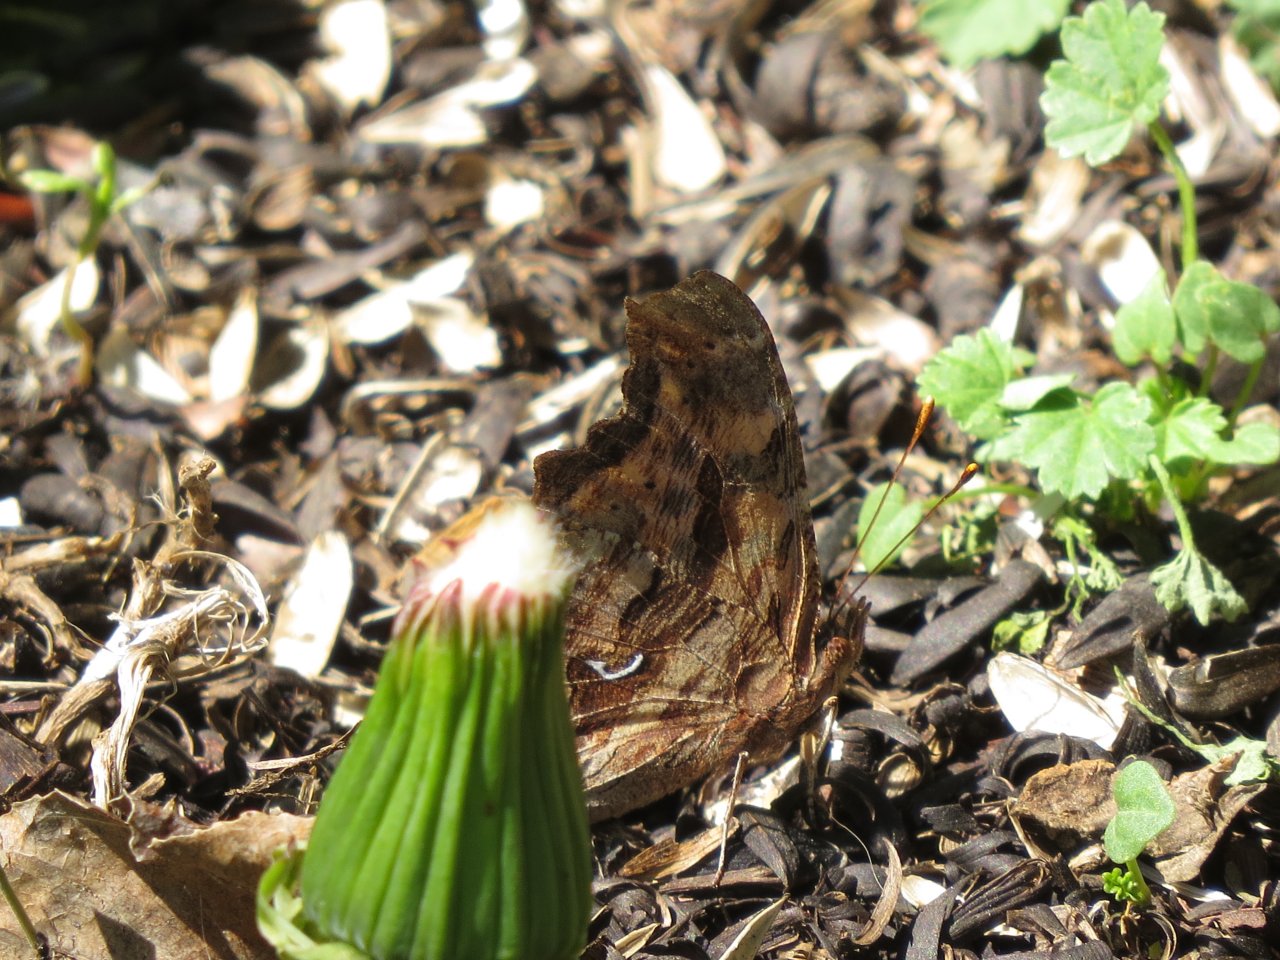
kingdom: Animalia
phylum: Arthropoda
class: Insecta
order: Lepidoptera
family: Nymphalidae
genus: Polygonia
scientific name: Polygonia faunus
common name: Green Comma
